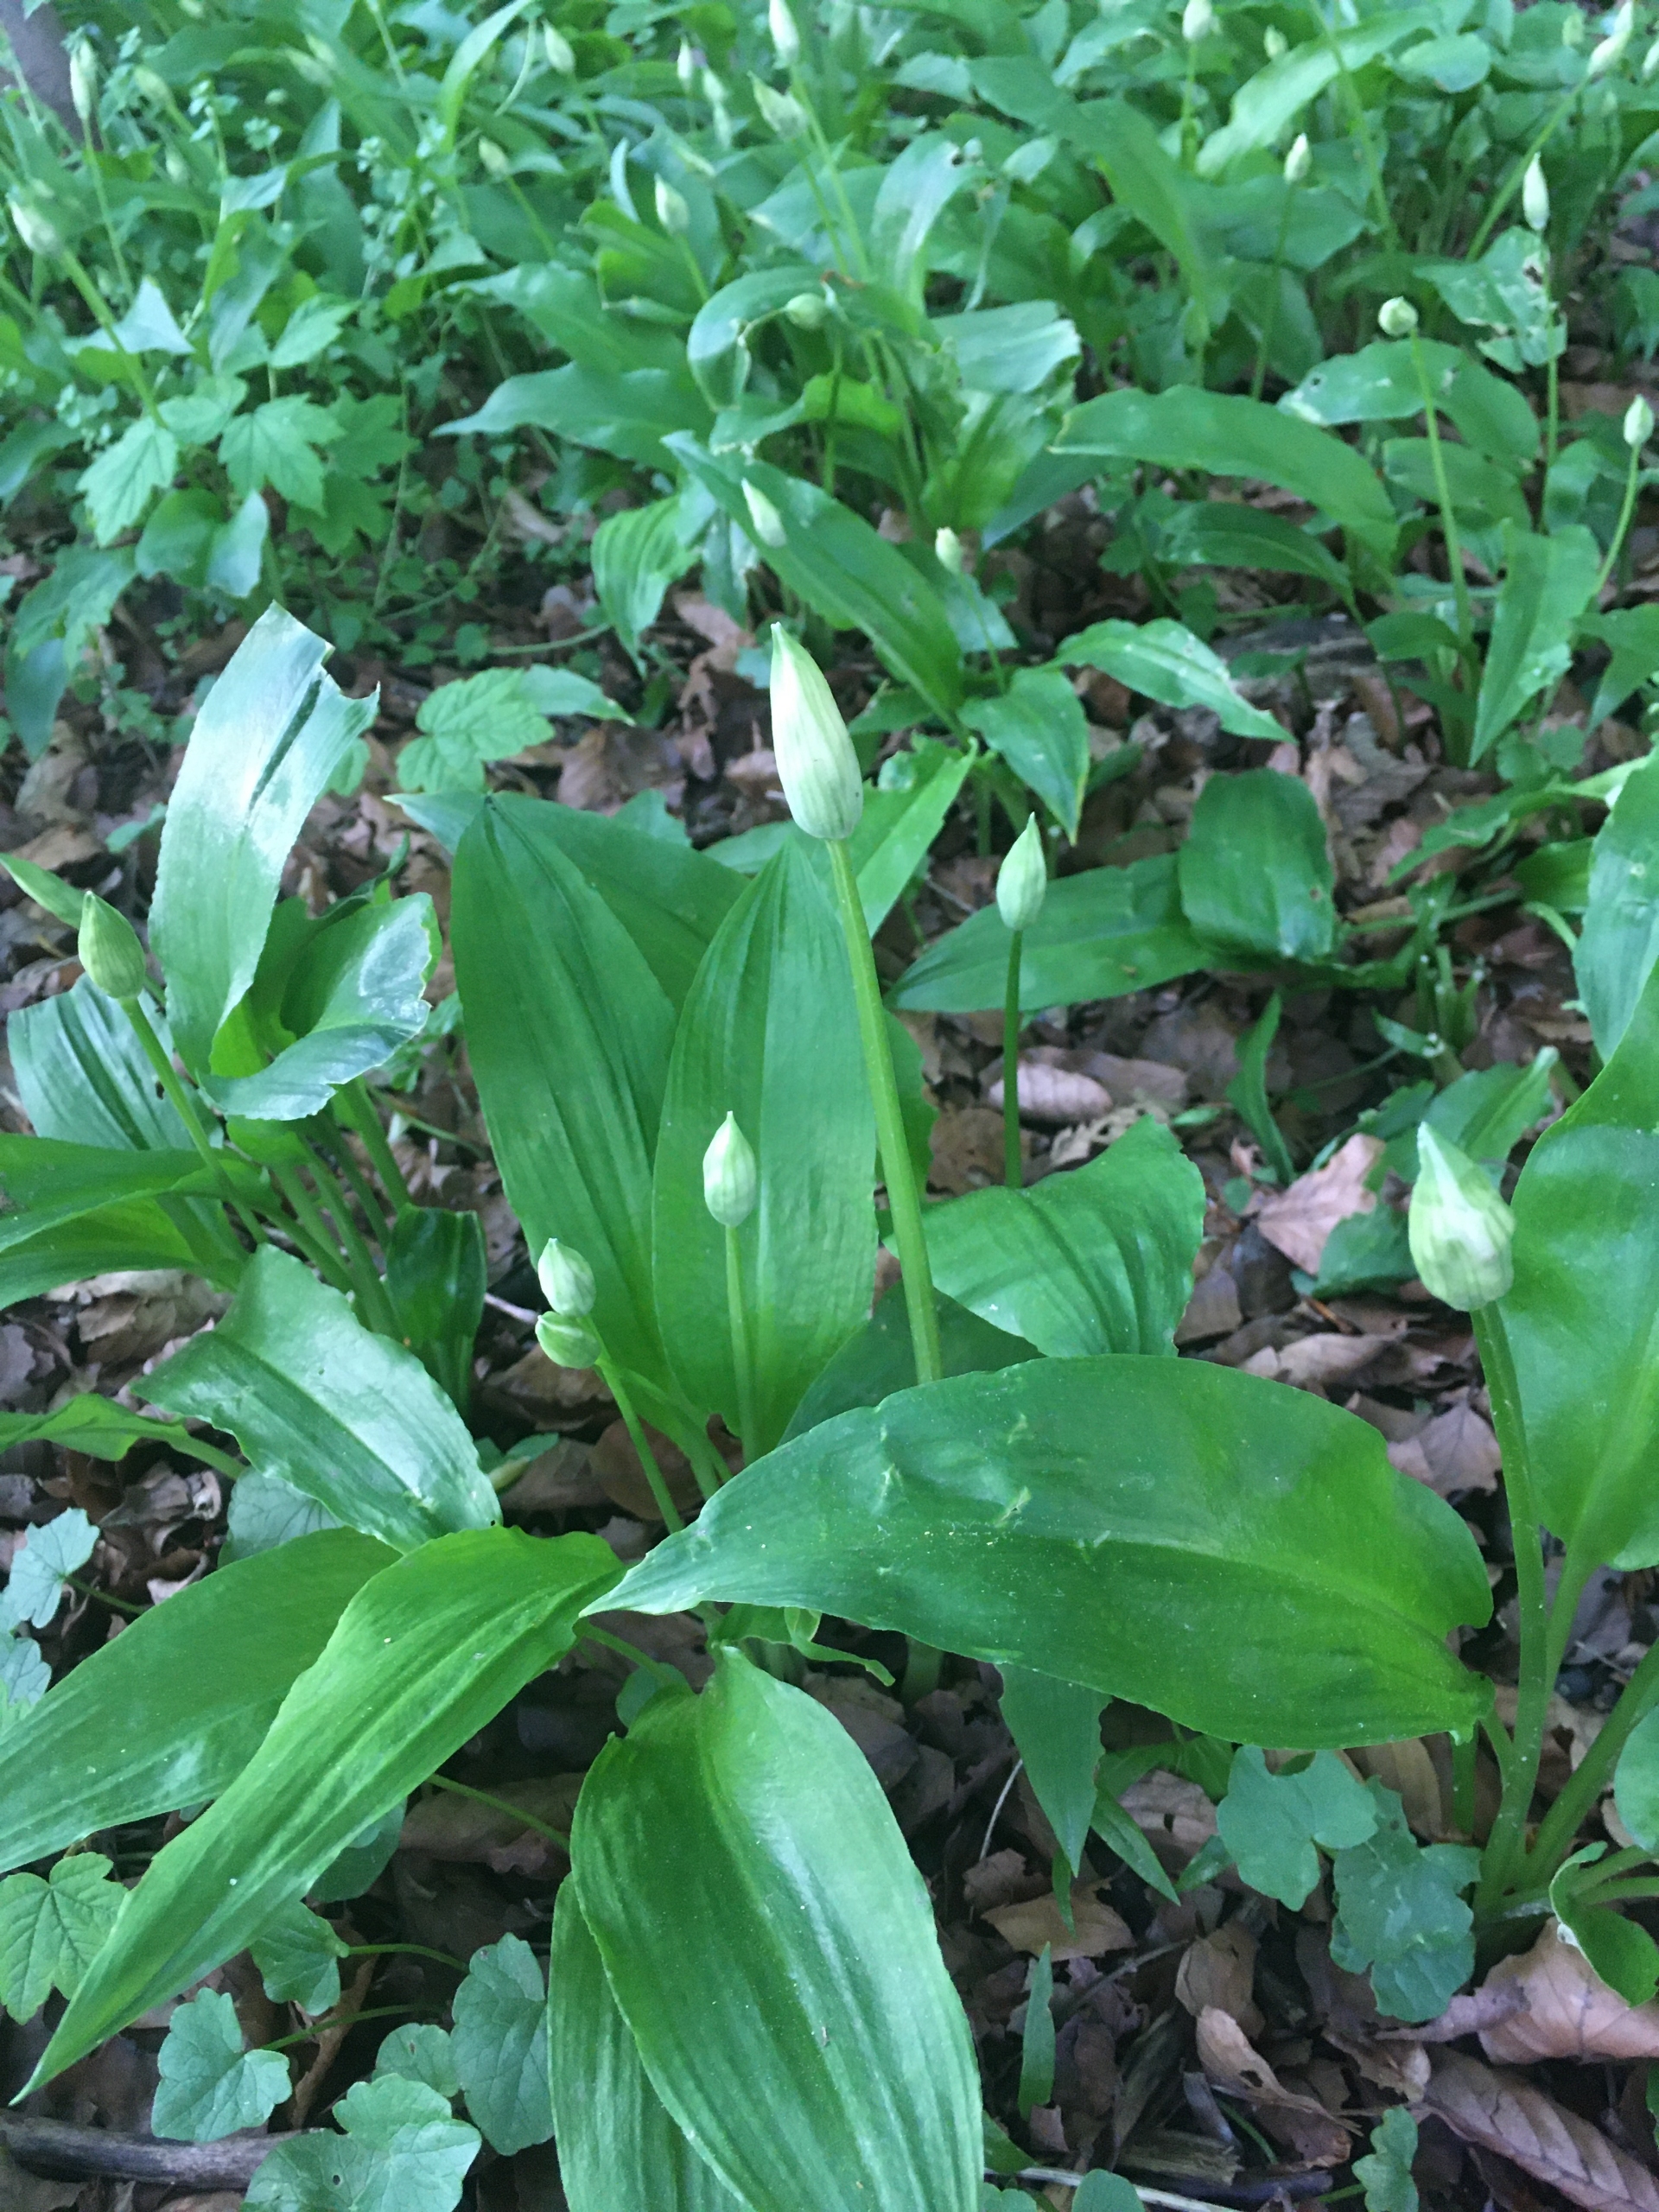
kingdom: Plantae
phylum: Tracheophyta
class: Liliopsida
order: Asparagales
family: Amaryllidaceae
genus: Allium
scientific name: Allium ursinum
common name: Rams-løg
